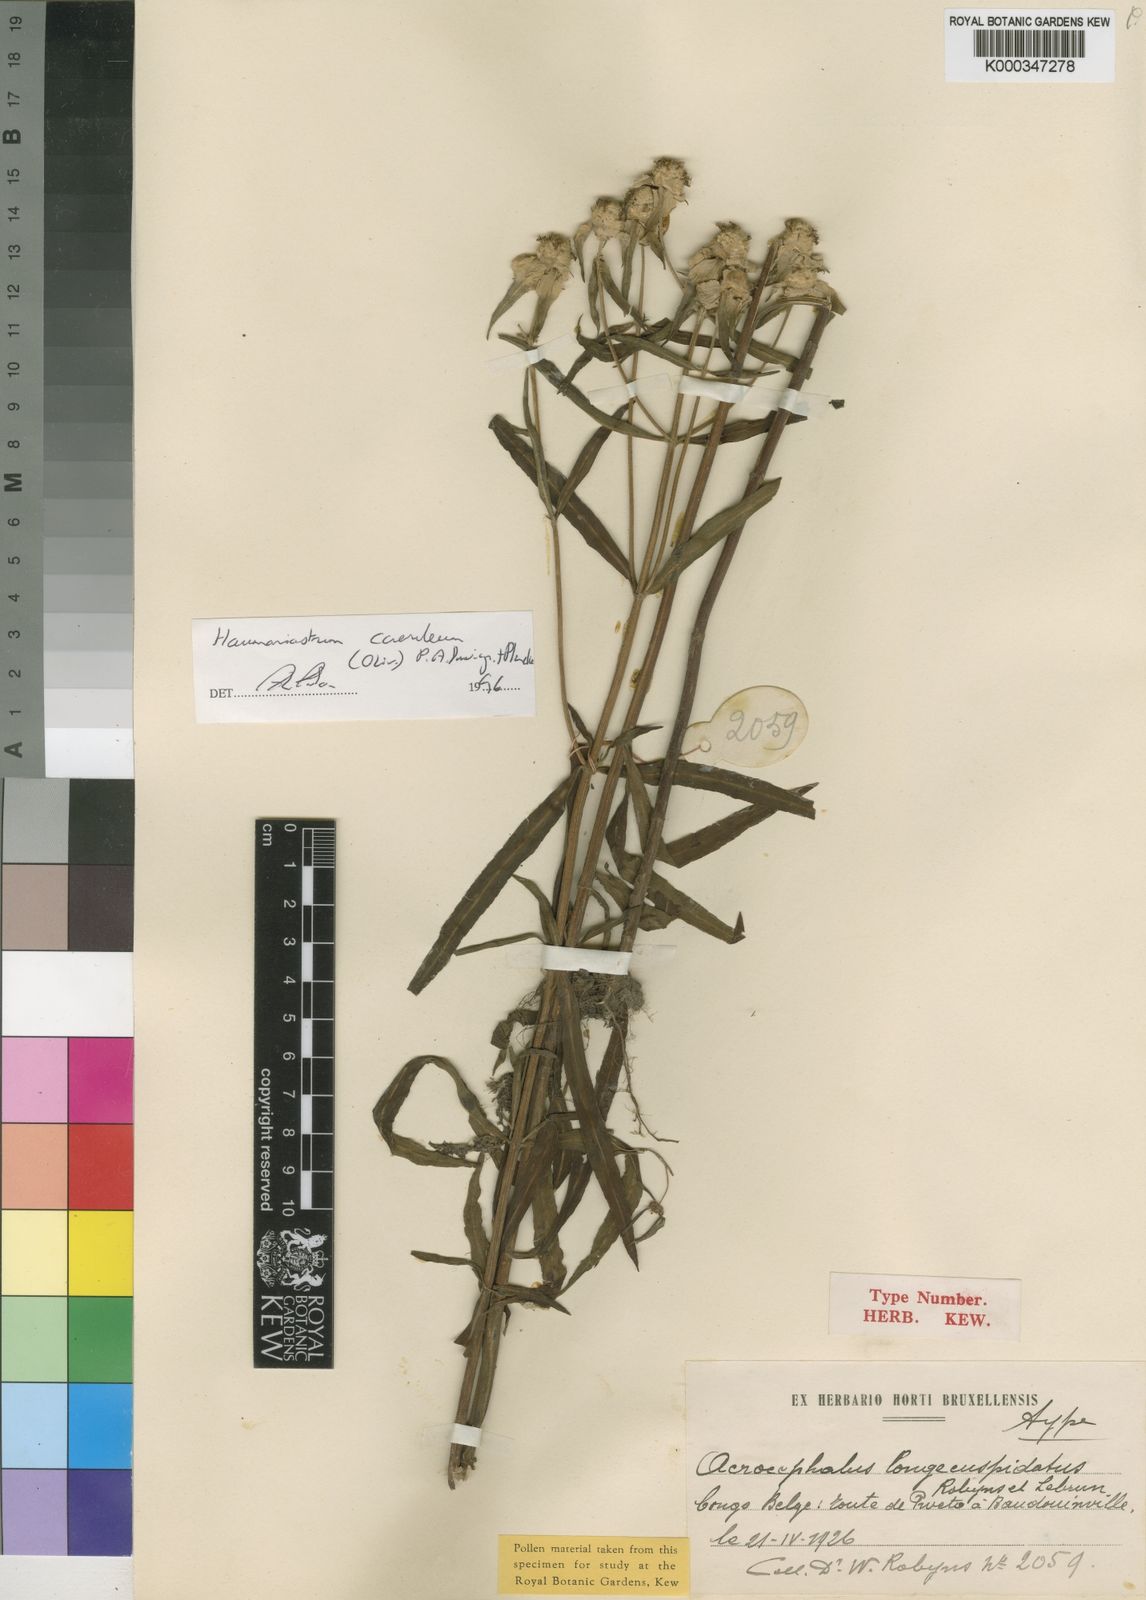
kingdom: Plantae
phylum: Tracheophyta
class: Magnoliopsida
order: Lamiales
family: Lamiaceae
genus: Haumaniastrum
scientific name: Haumaniastrum caeruleum
